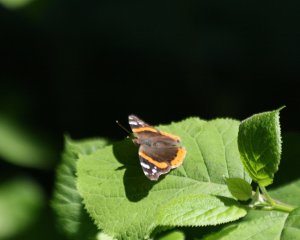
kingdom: Animalia
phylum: Arthropoda
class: Insecta
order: Lepidoptera
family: Nymphalidae
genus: Vanessa
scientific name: Vanessa atalanta
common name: Red Admiral
